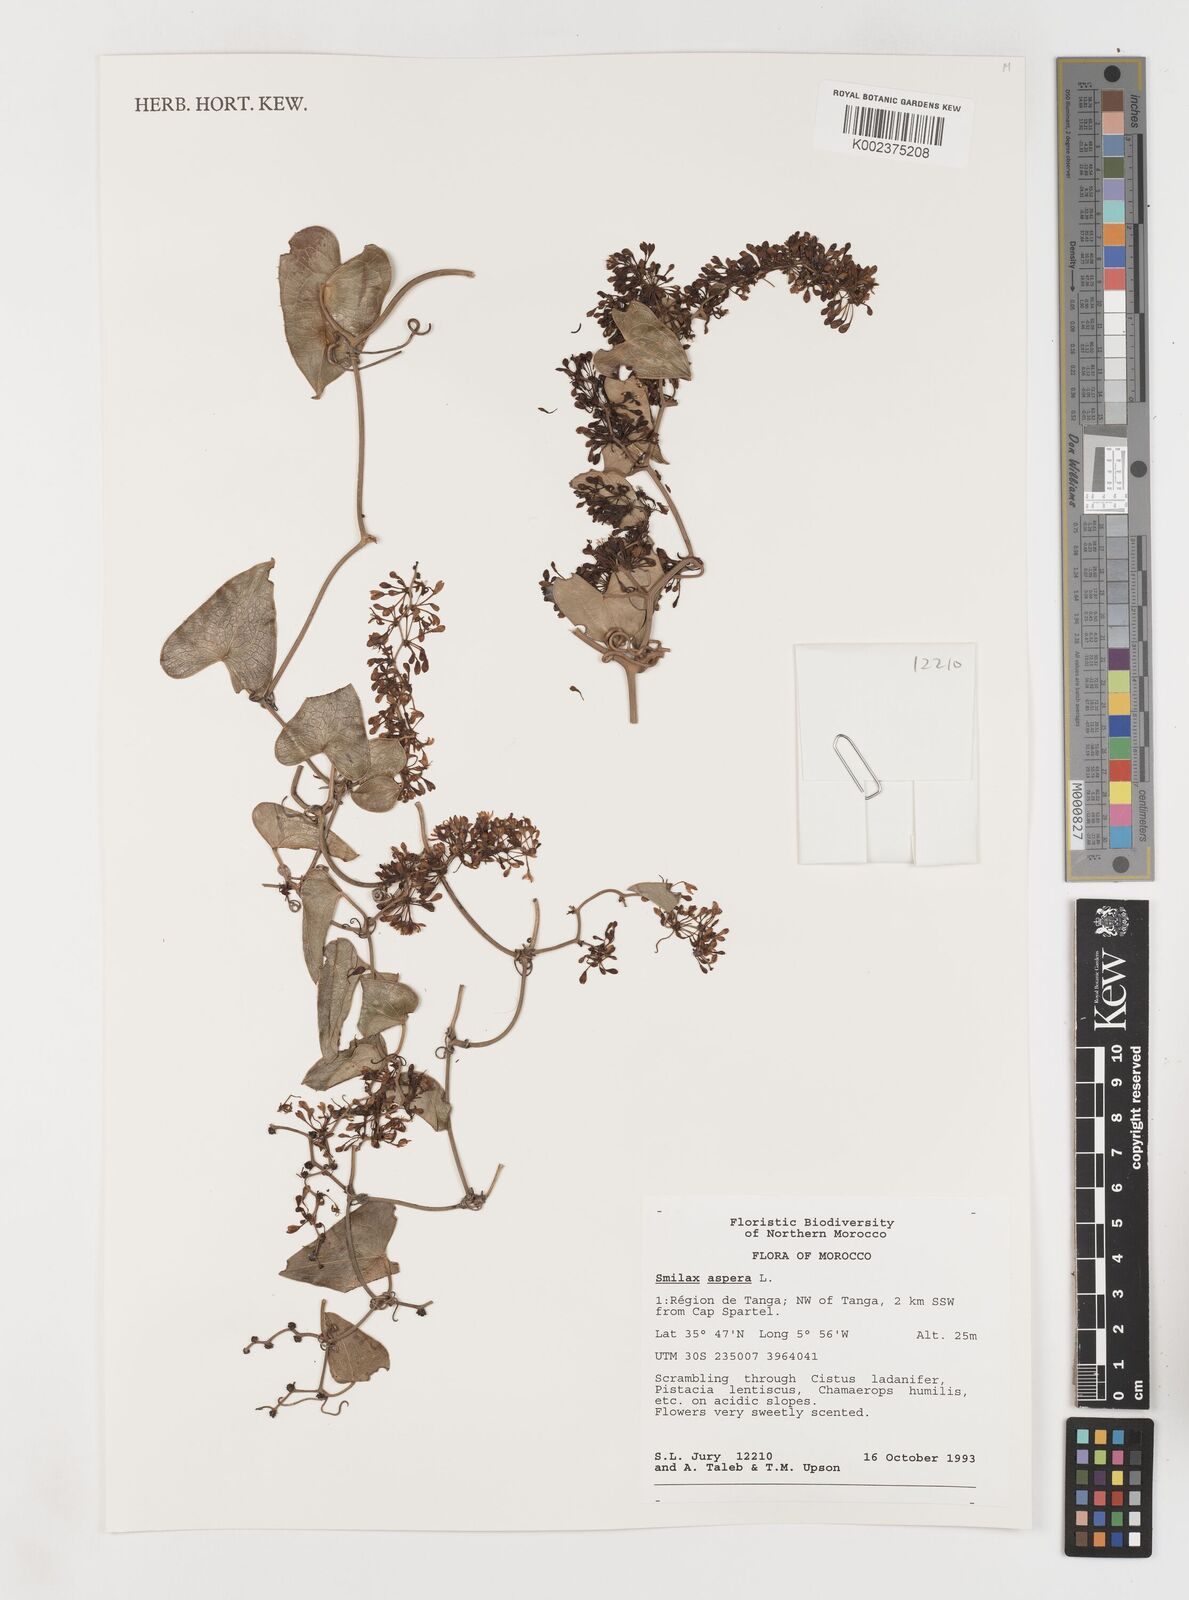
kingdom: Plantae
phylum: Tracheophyta
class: Liliopsida
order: Liliales
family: Smilacaceae
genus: Smilax
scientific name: Smilax aspera
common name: Common smilax
